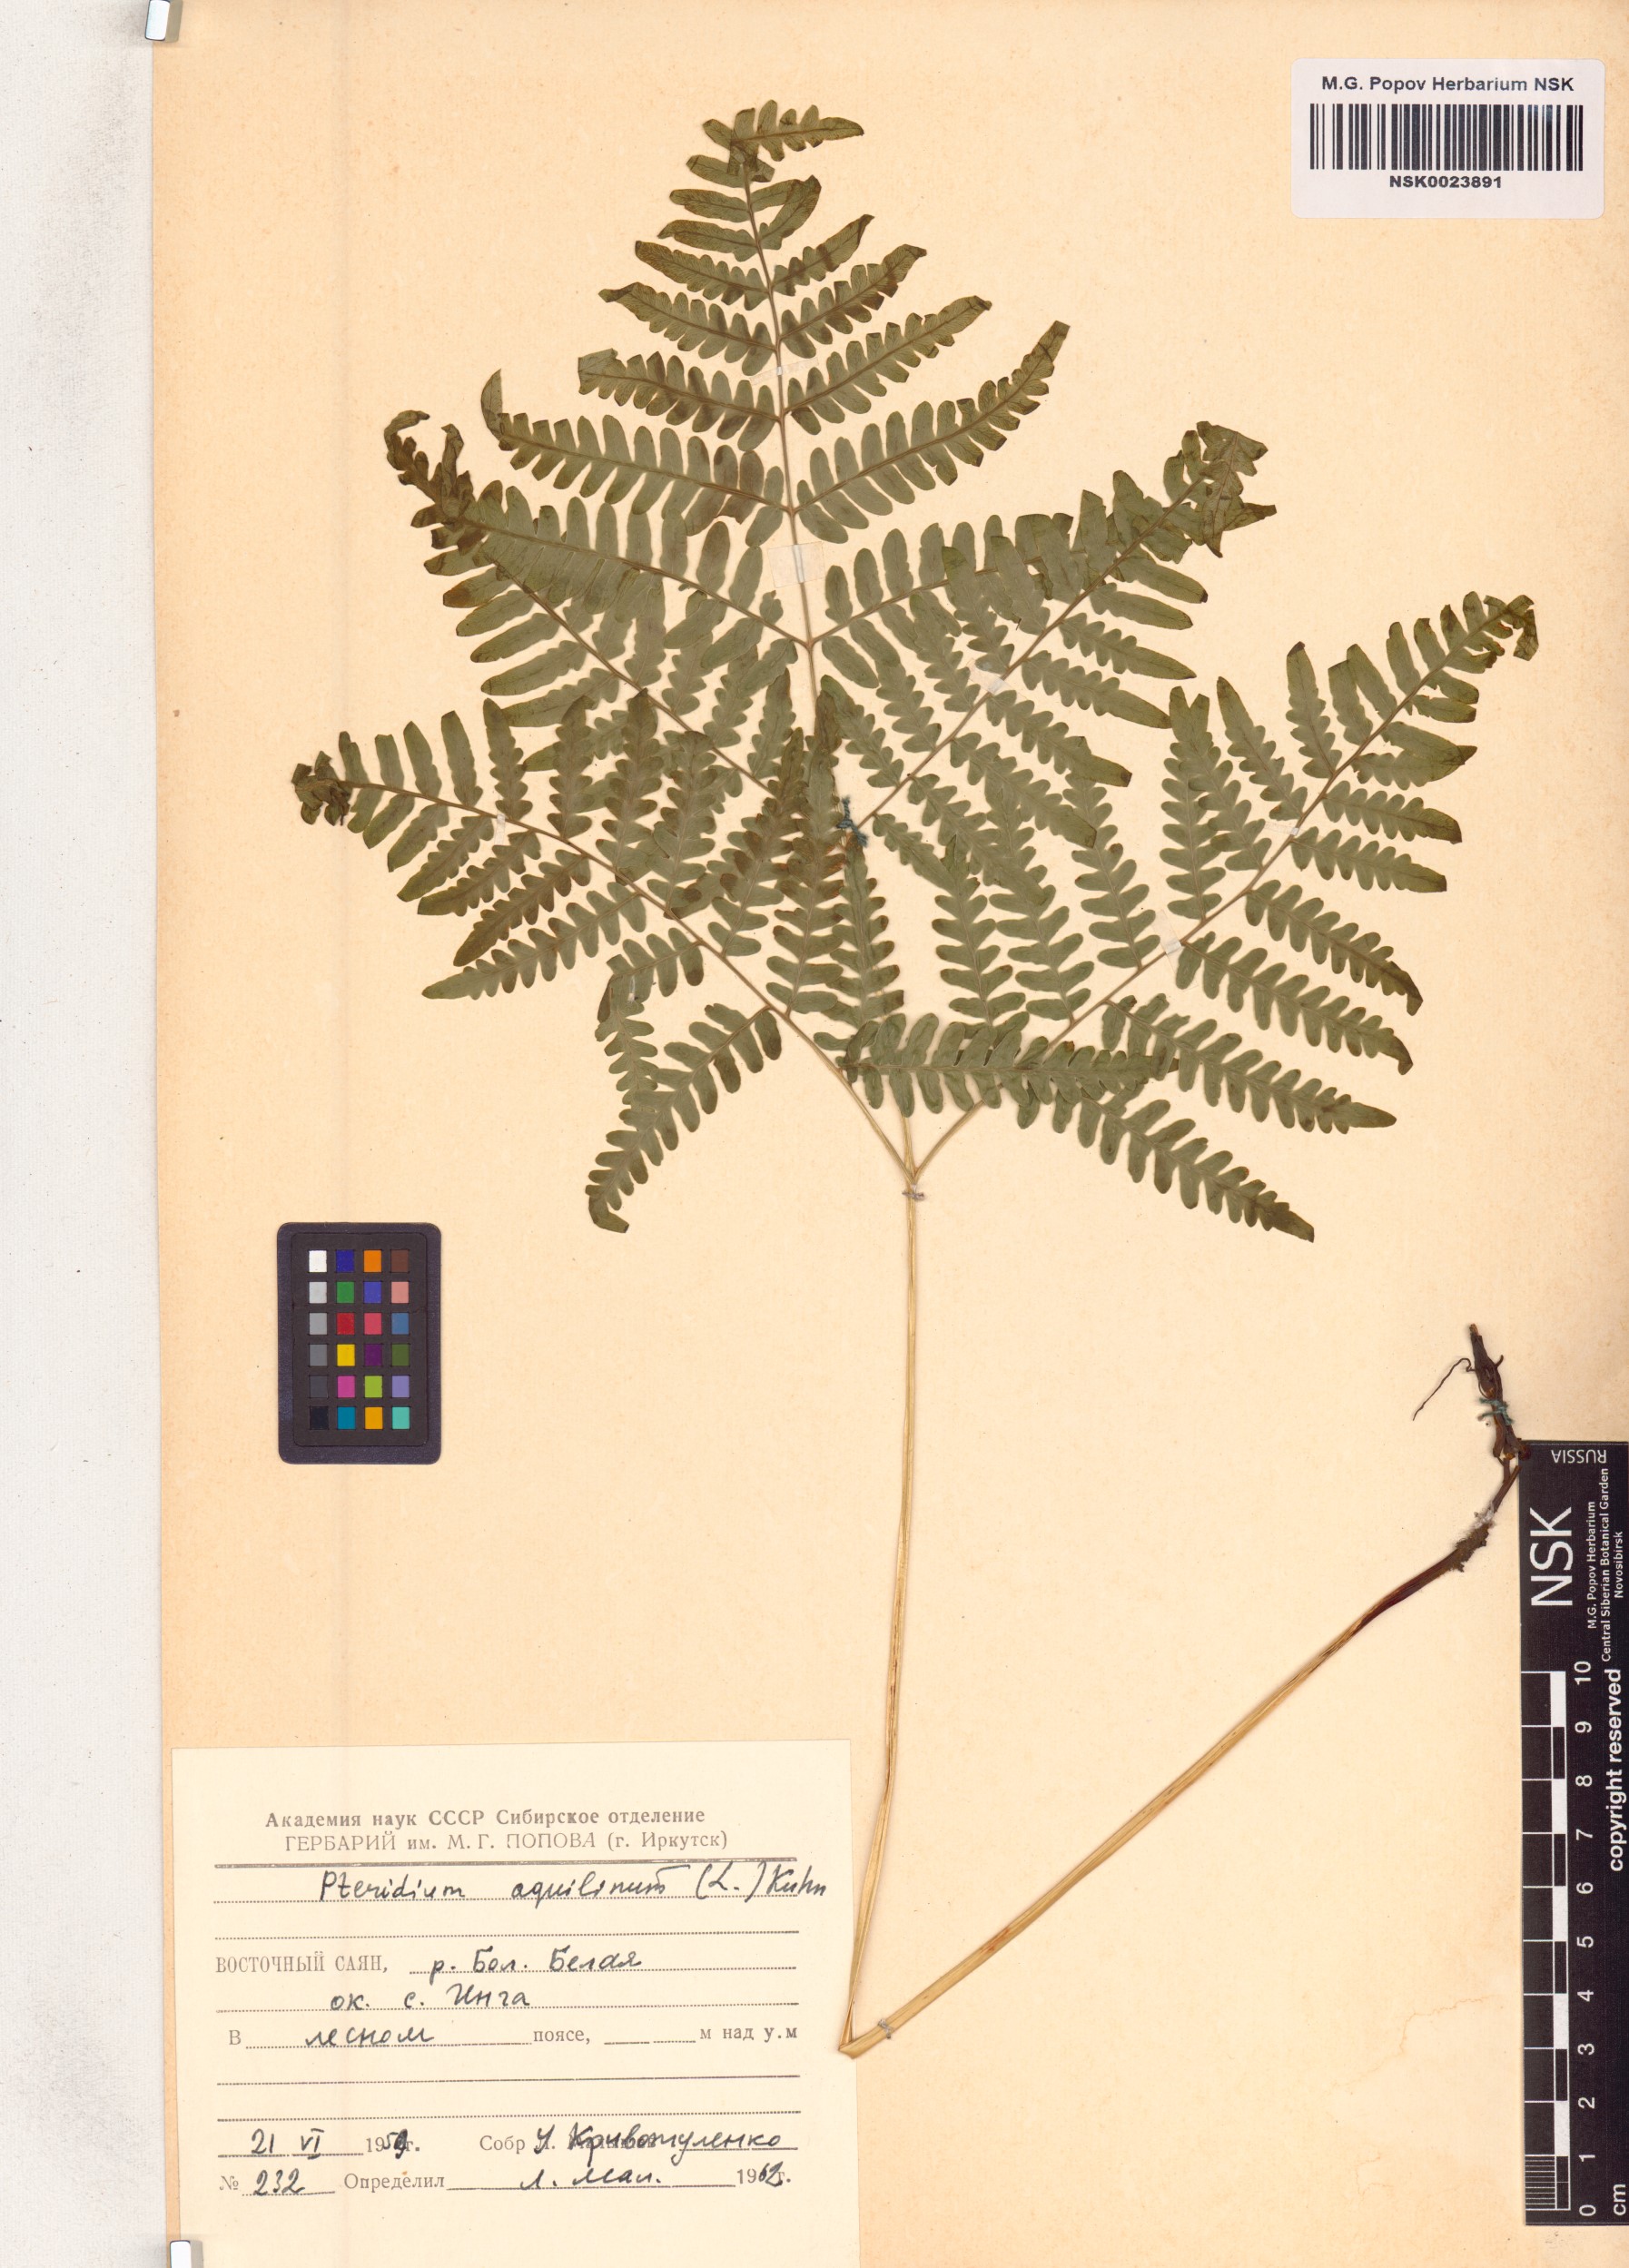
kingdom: Plantae
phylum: Tracheophyta
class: Polypodiopsida
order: Polypodiales
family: Dennstaedtiaceae
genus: Pteridium
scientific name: Pteridium aquilinum
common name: Bracken
